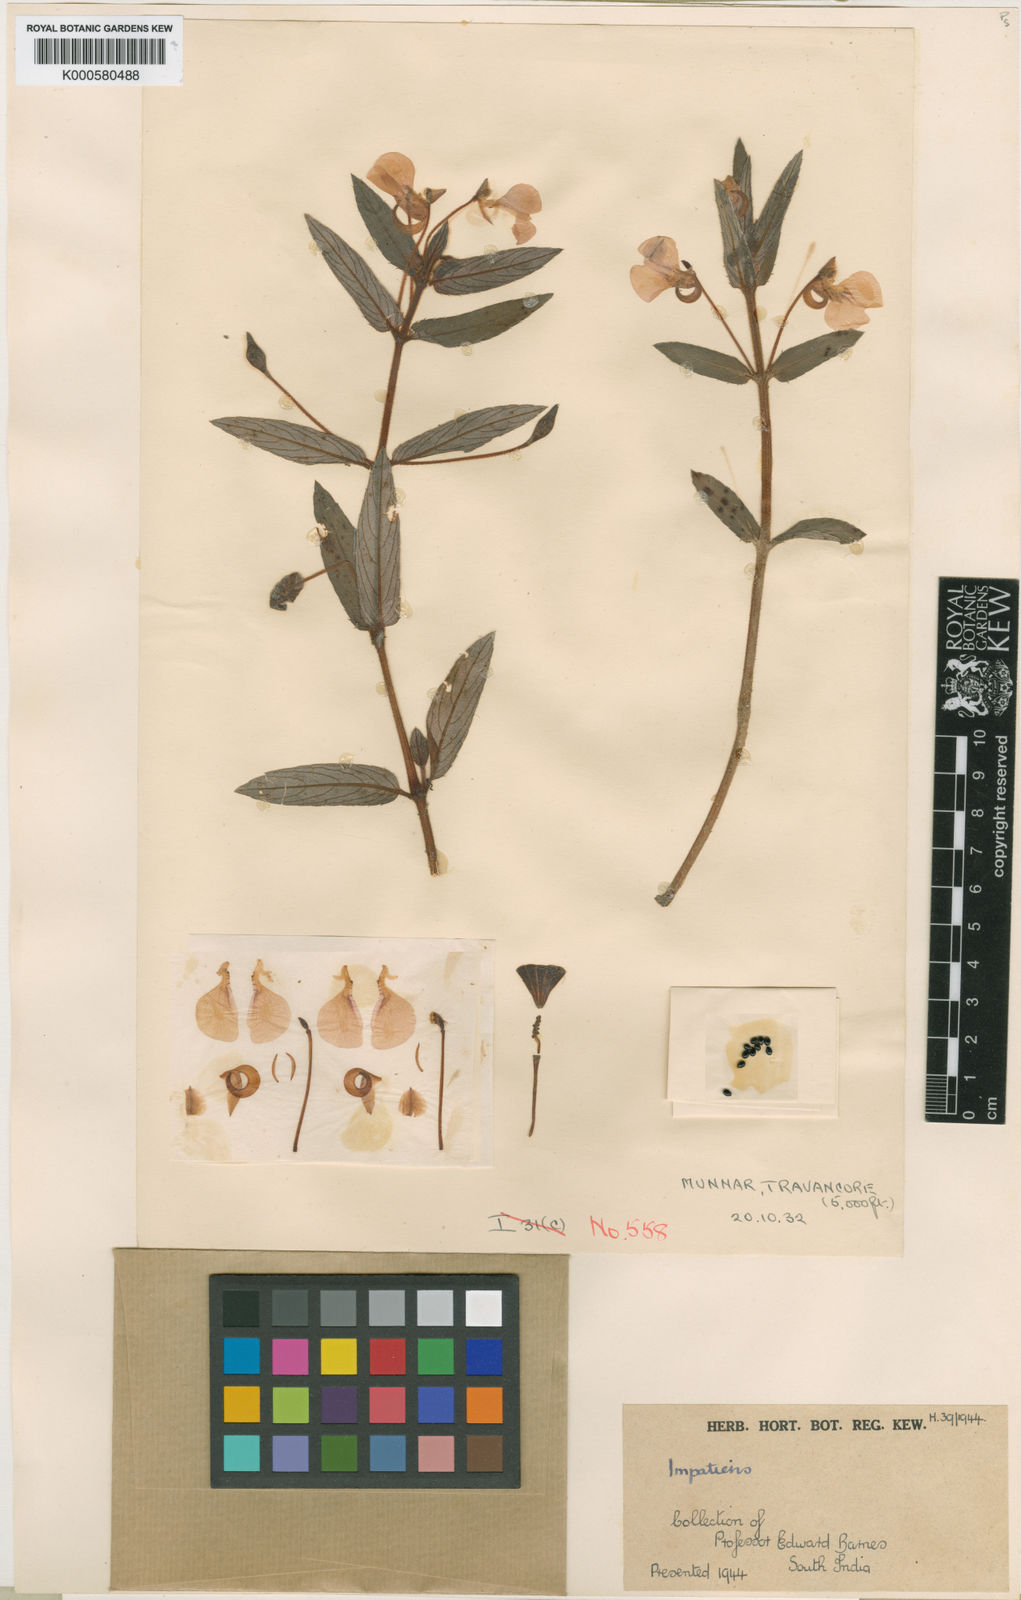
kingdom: Plantae
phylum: Tracheophyta
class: Magnoliopsida
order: Ericales
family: Balsaminaceae
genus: Impatiens
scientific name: Impatiens chinensis
